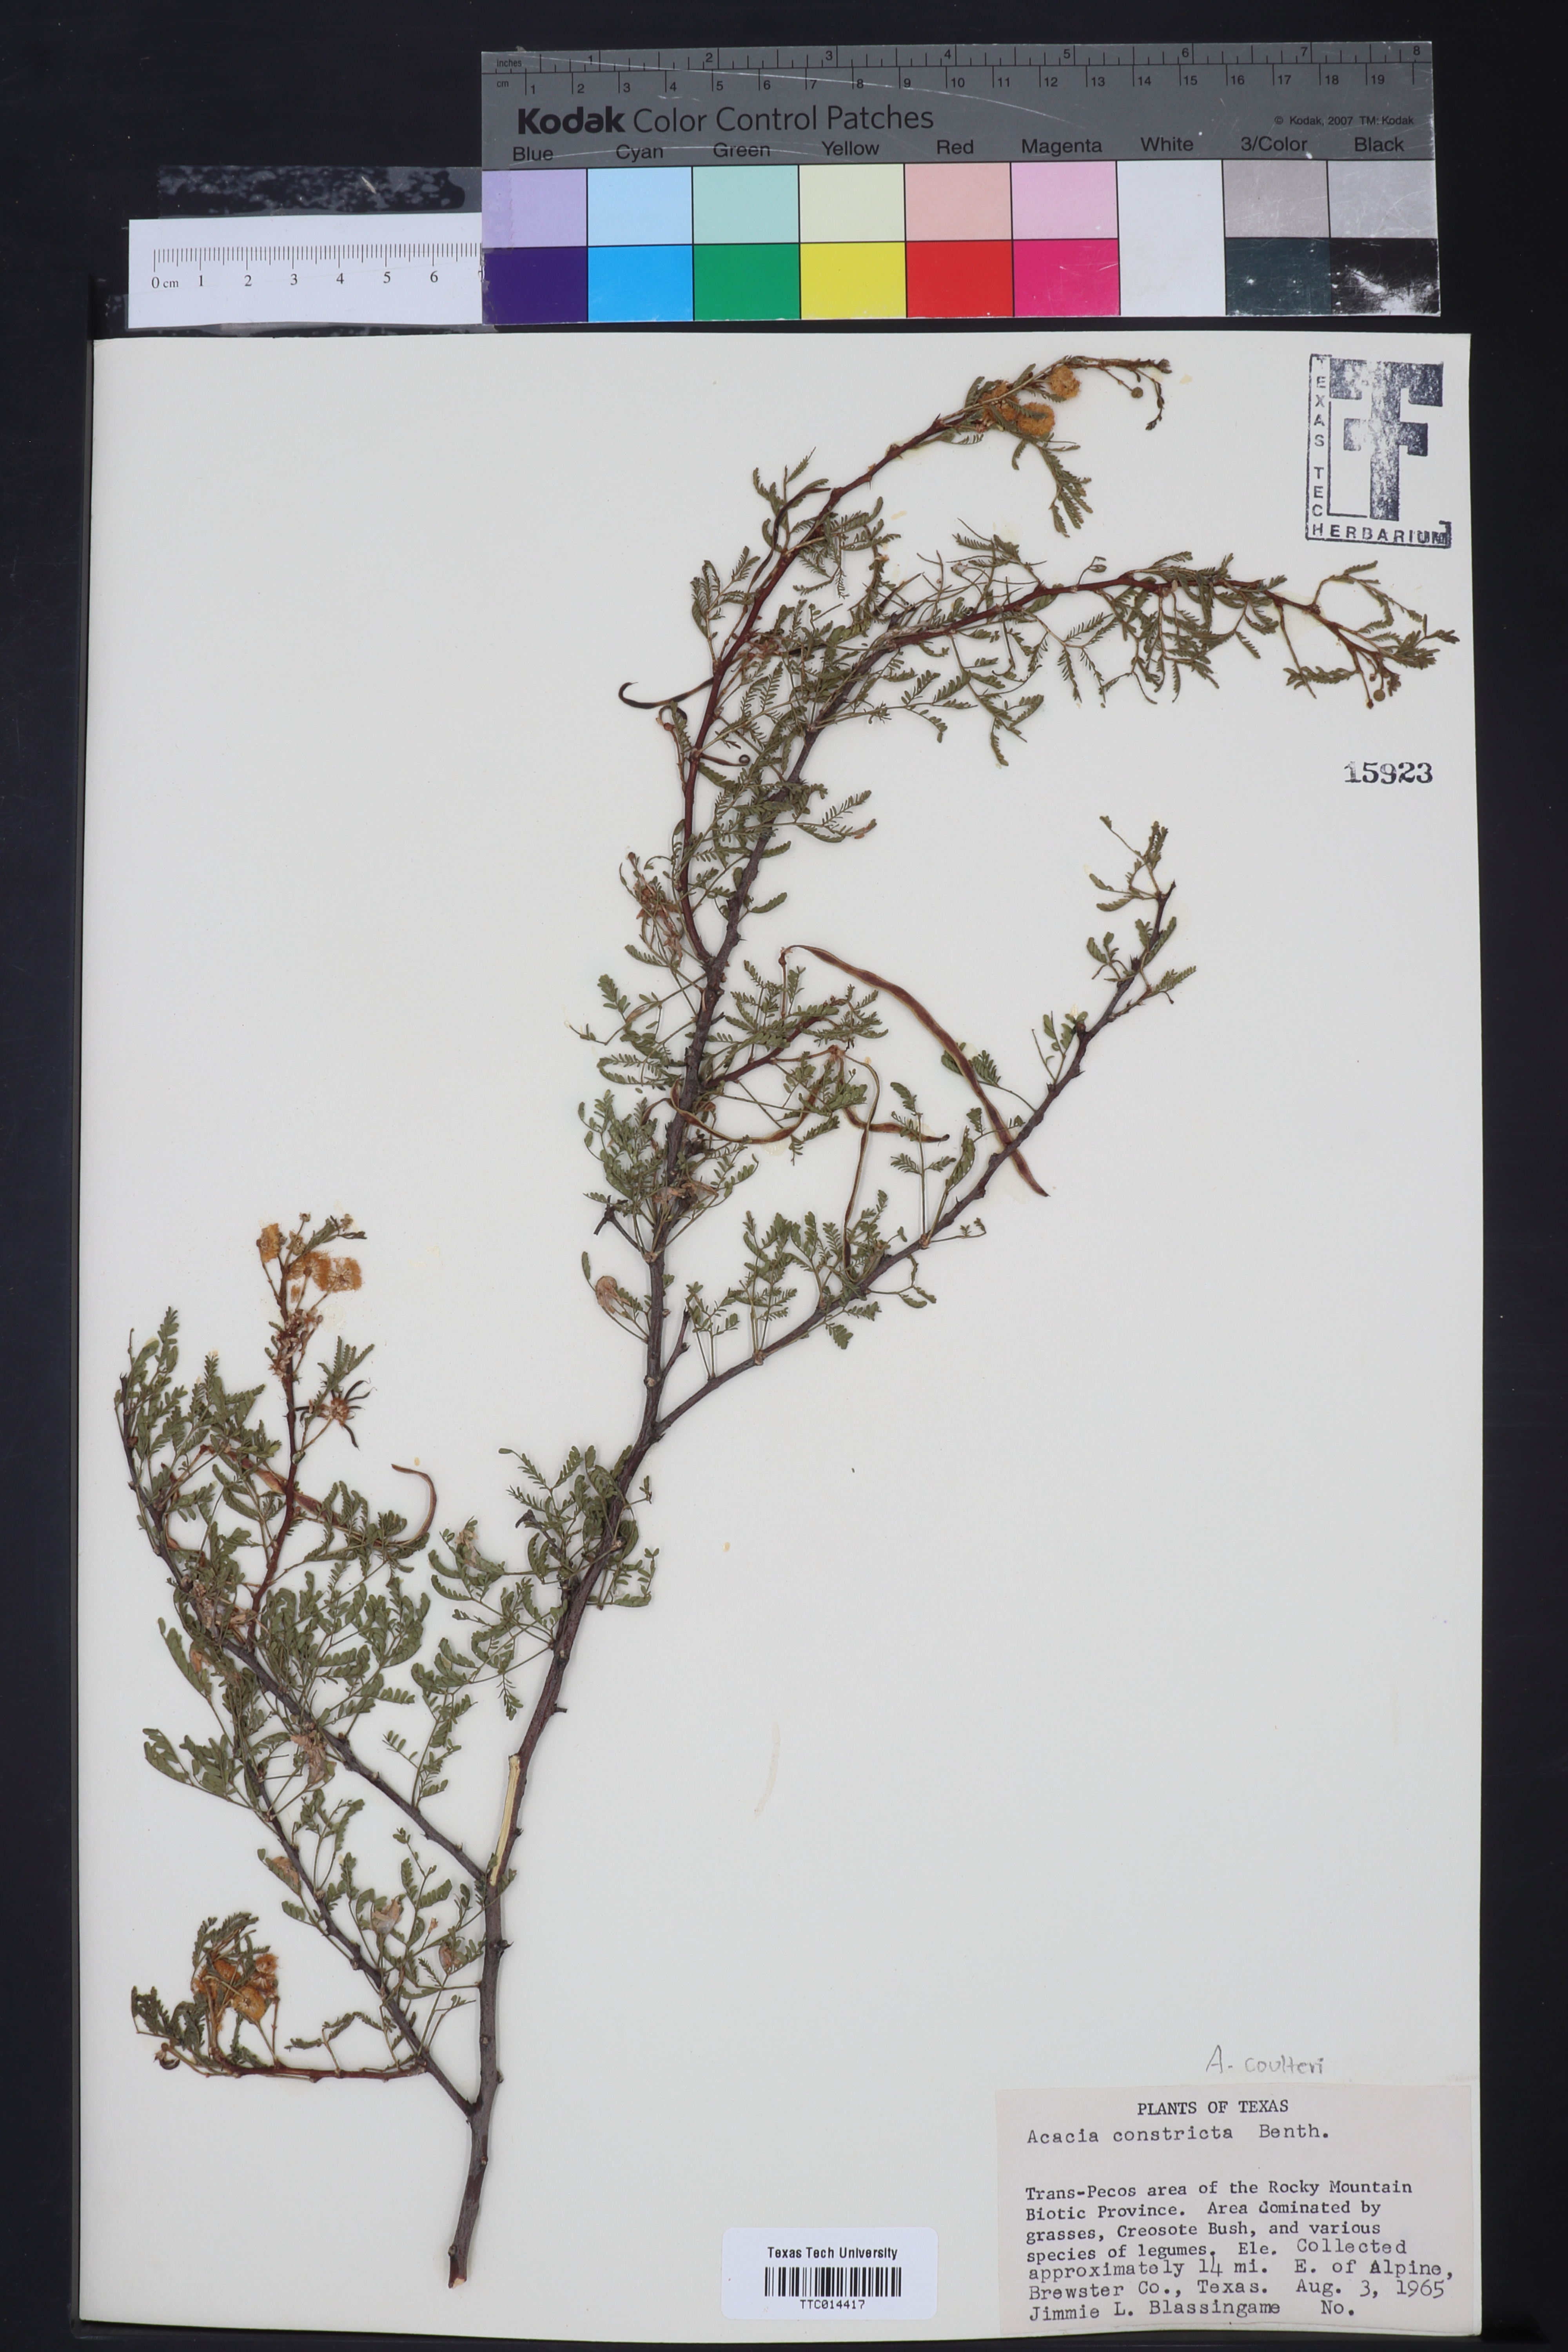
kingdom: Plantae
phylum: Tracheophyta
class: Magnoliopsida
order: Fabales
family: Fabaceae
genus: Vachellia
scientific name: Vachellia constricta
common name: Mescat acacia
